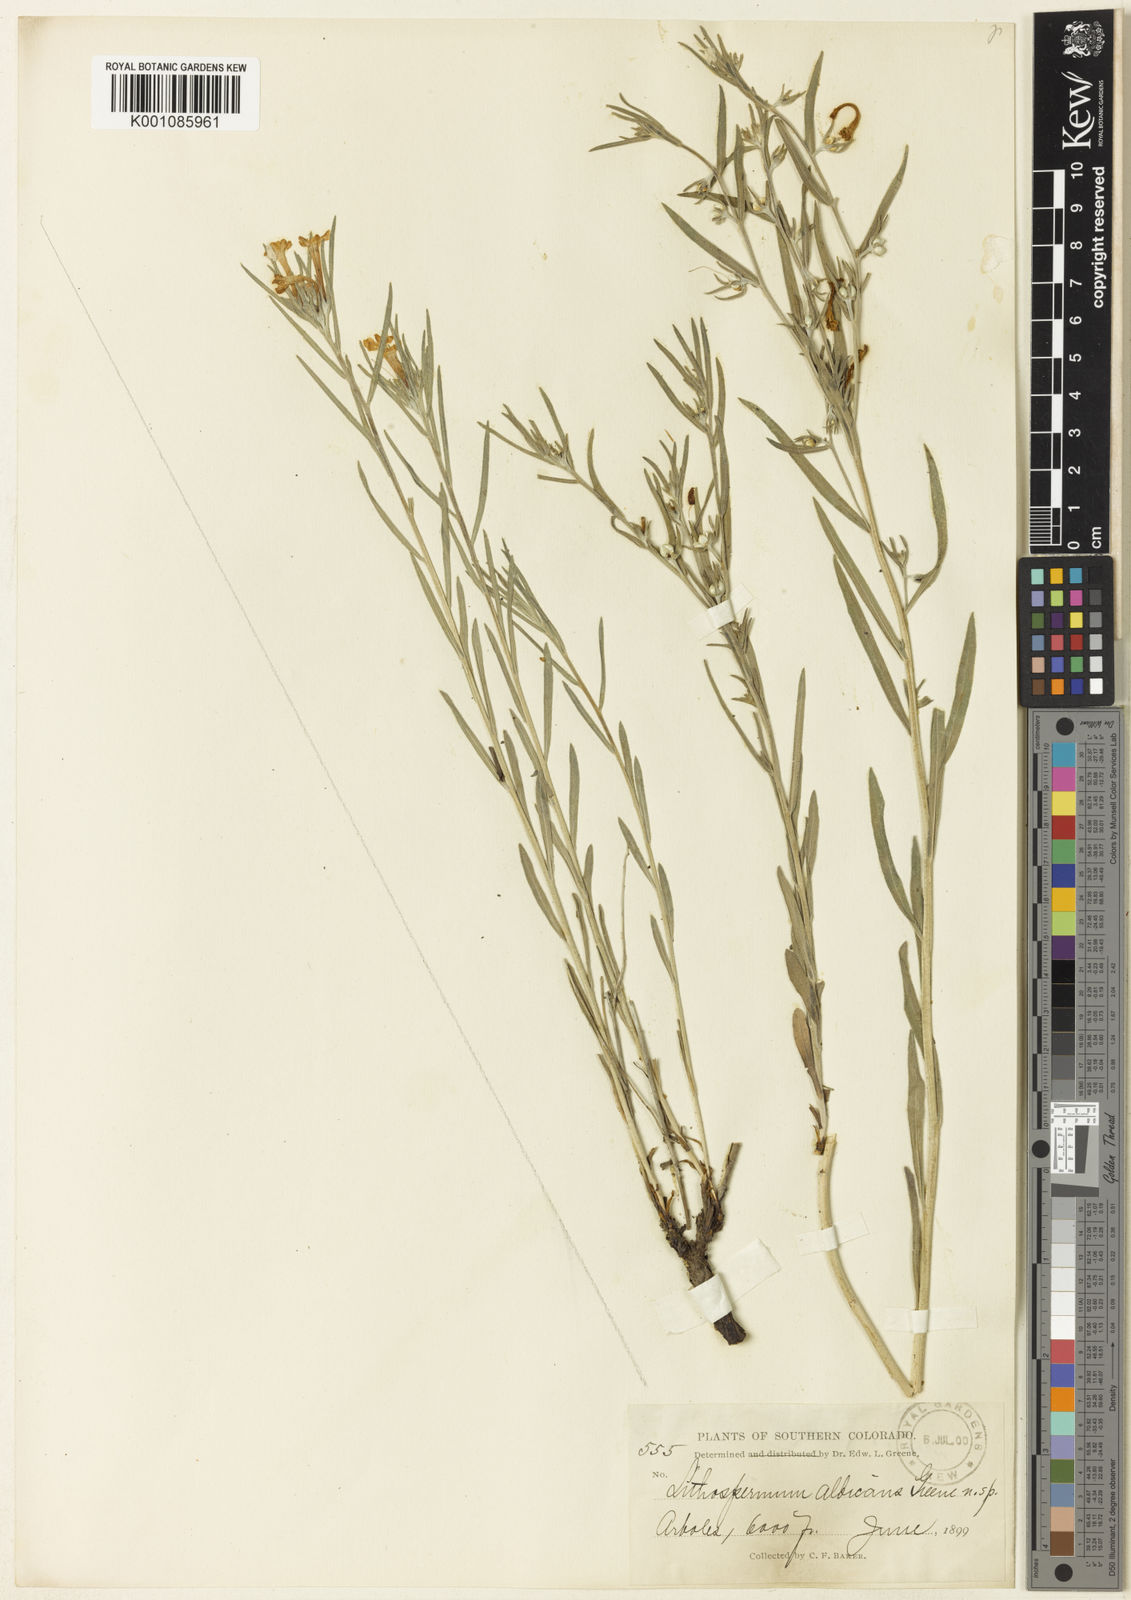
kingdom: Plantae
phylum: Tracheophyta
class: Magnoliopsida
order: Boraginales
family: Boraginaceae
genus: Lithospermum
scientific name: Lithospermum incisum
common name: Fringed gromwell
